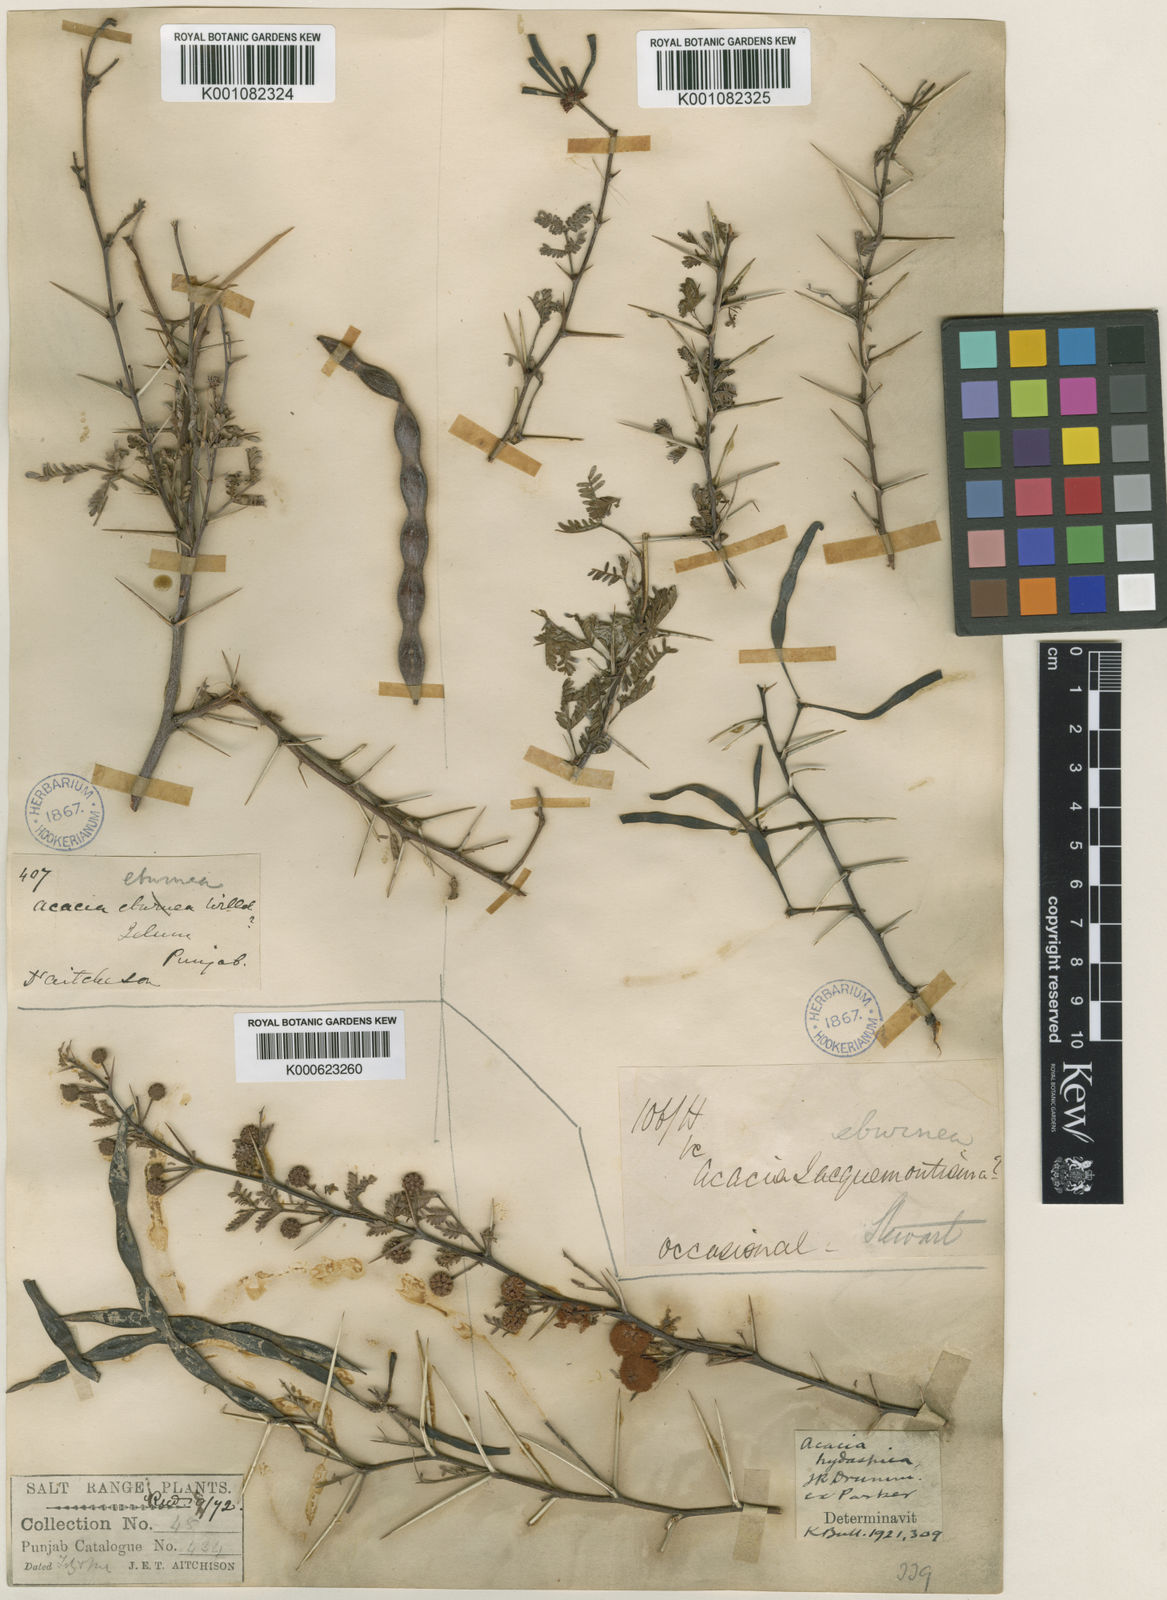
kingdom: Plantae
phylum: Tracheophyta
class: Magnoliopsida
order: Fabales
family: Fabaceae
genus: Vachellia
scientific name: Vachellia hydaspica
